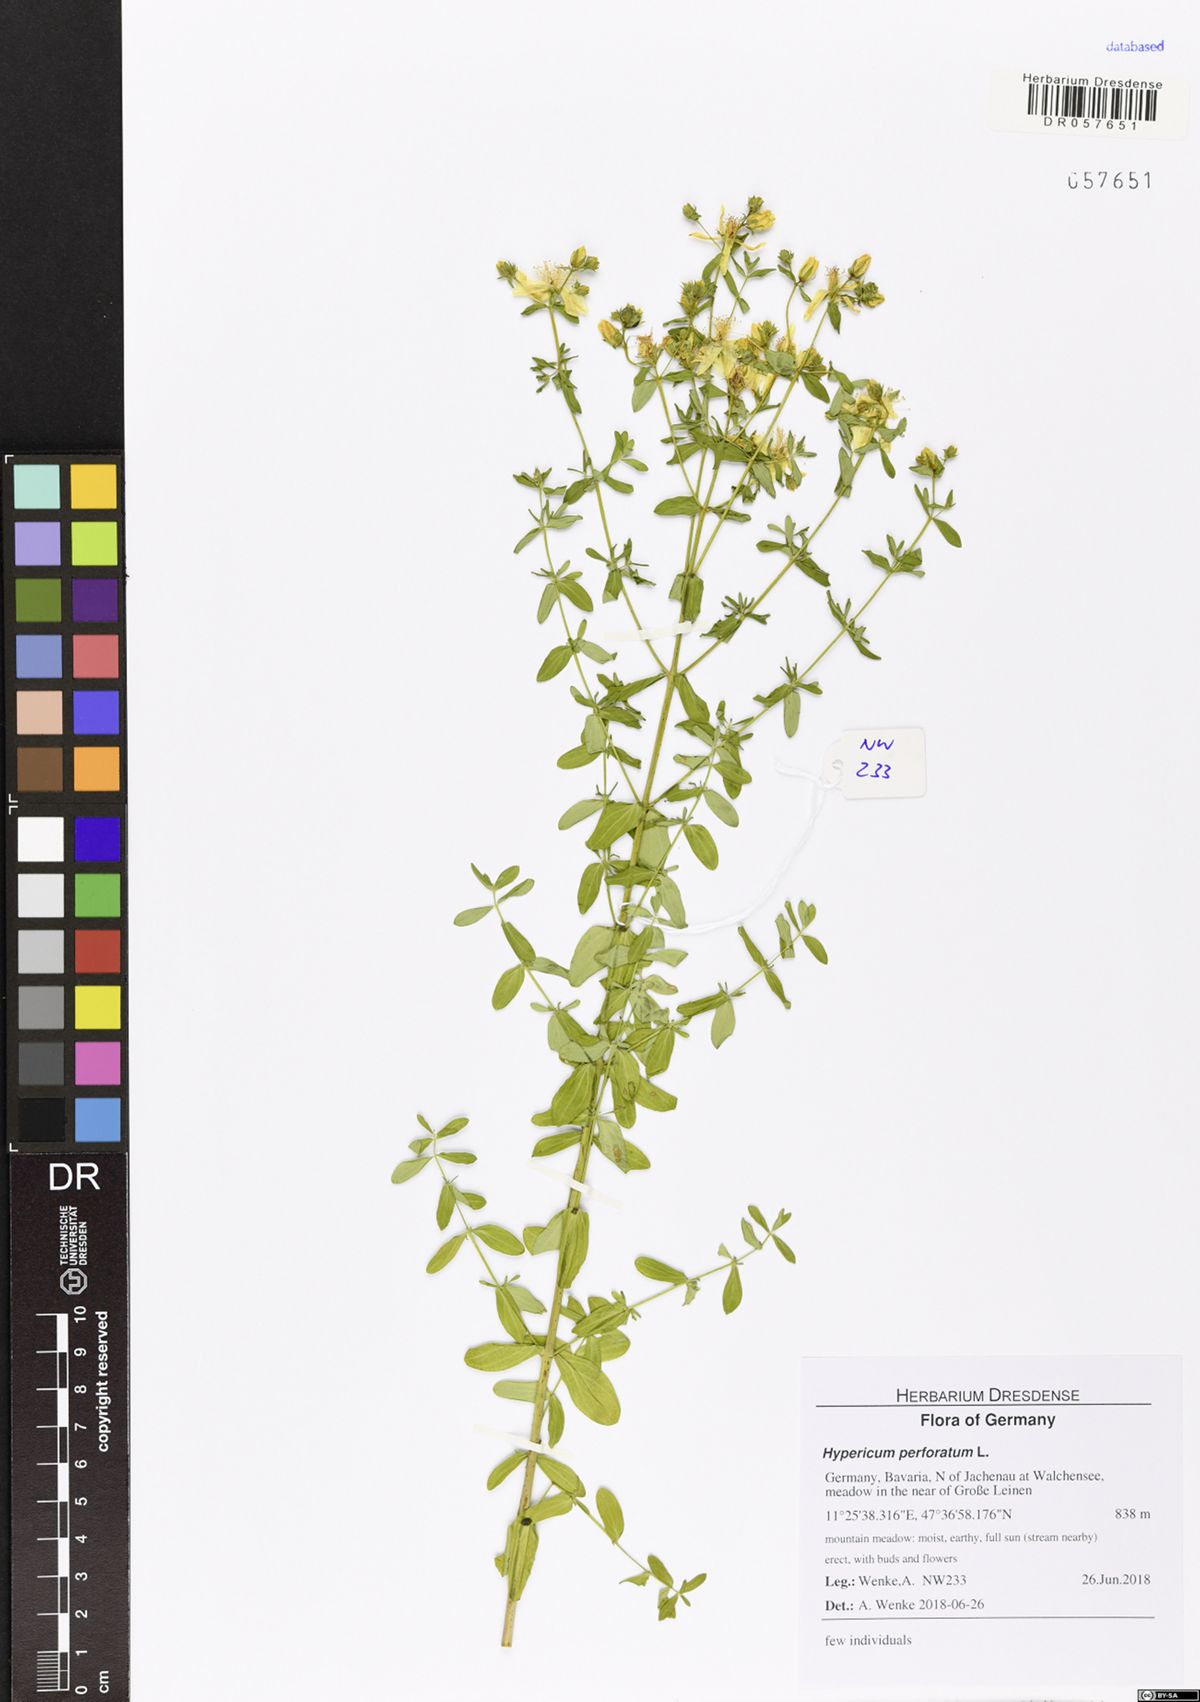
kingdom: Plantae
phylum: Tracheophyta
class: Magnoliopsida
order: Malpighiales
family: Hypericaceae
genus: Hypericum
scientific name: Hypericum perforatum
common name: Common st. johnswort
